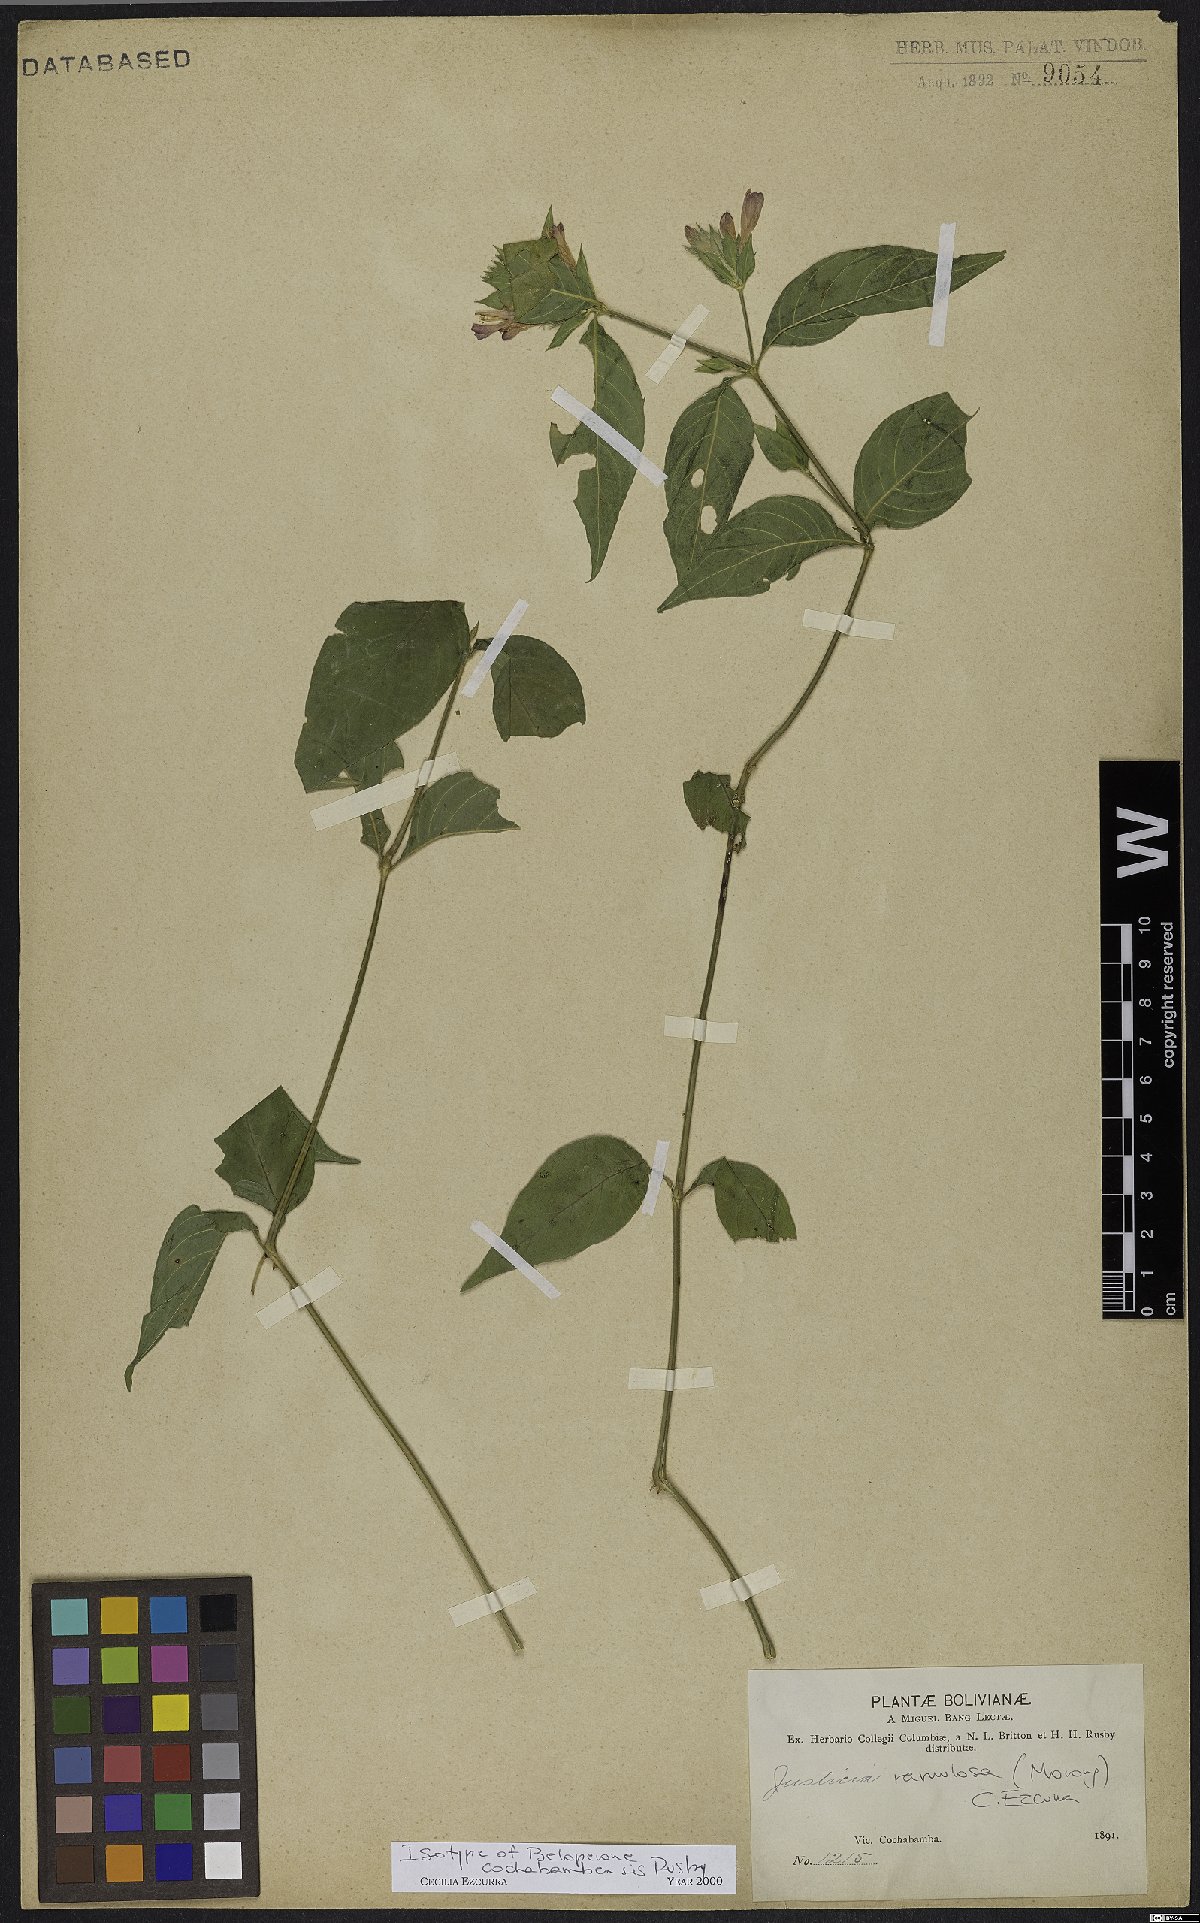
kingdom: Plantae
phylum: Tracheophyta
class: Magnoliopsida
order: Lamiales
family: Acanthaceae
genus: Justicia
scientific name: Justicia ramulosa
